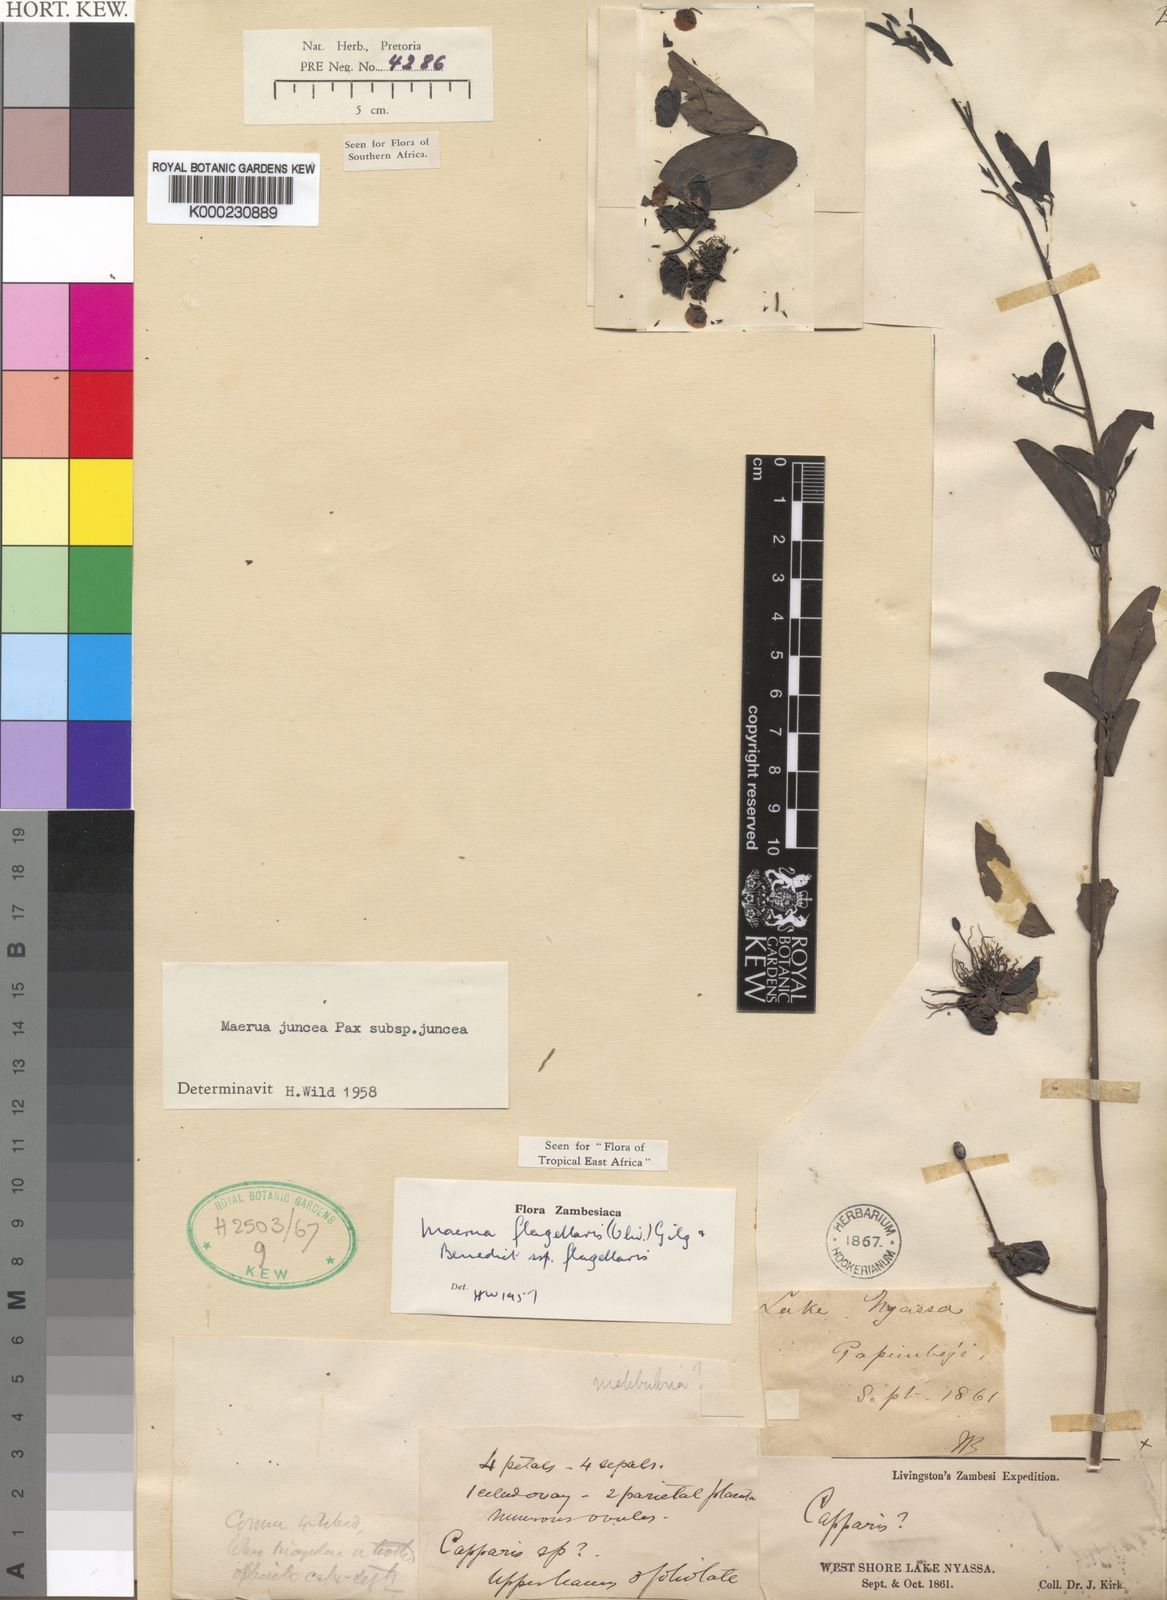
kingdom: Plantae
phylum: Tracheophyta
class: Magnoliopsida
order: Brassicales
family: Capparaceae
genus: Maerua
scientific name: Maerua juncea
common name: Rough-skinned bush cherry
